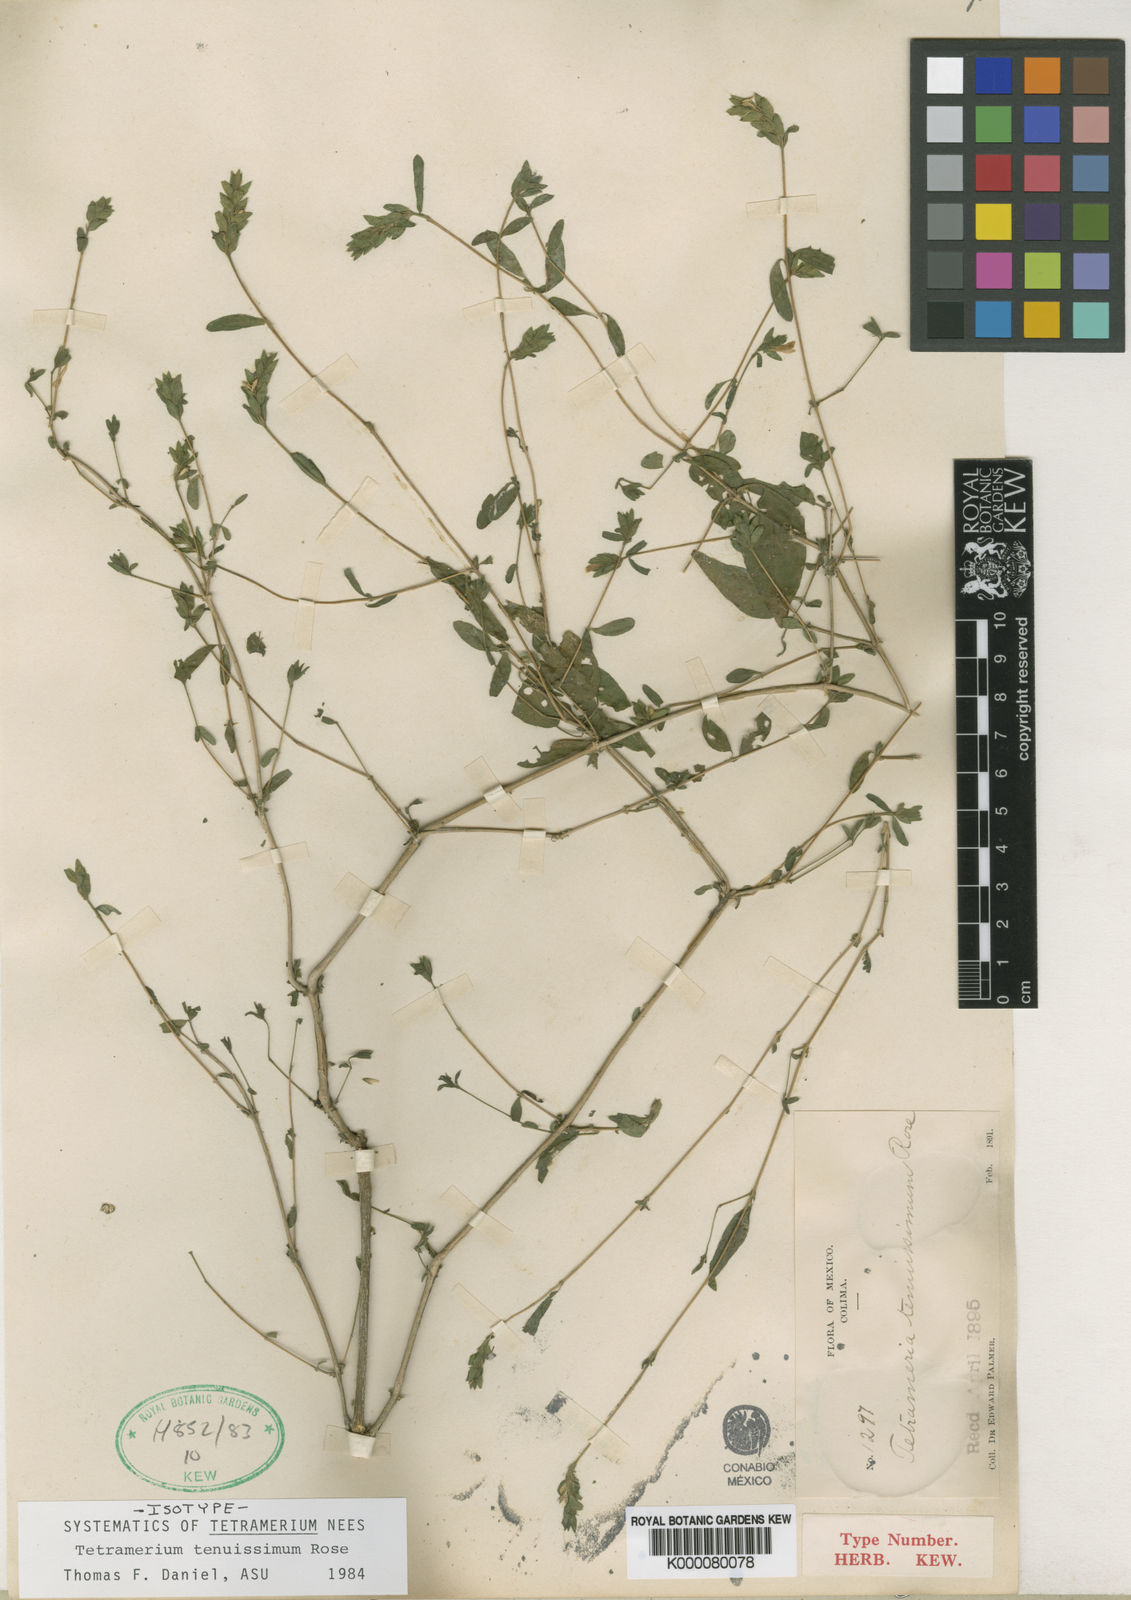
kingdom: Plantae
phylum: Tracheophyta
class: Magnoliopsida
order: Lamiales
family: Acanthaceae
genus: Tetramerium
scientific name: Tetramerium tenuissimum
